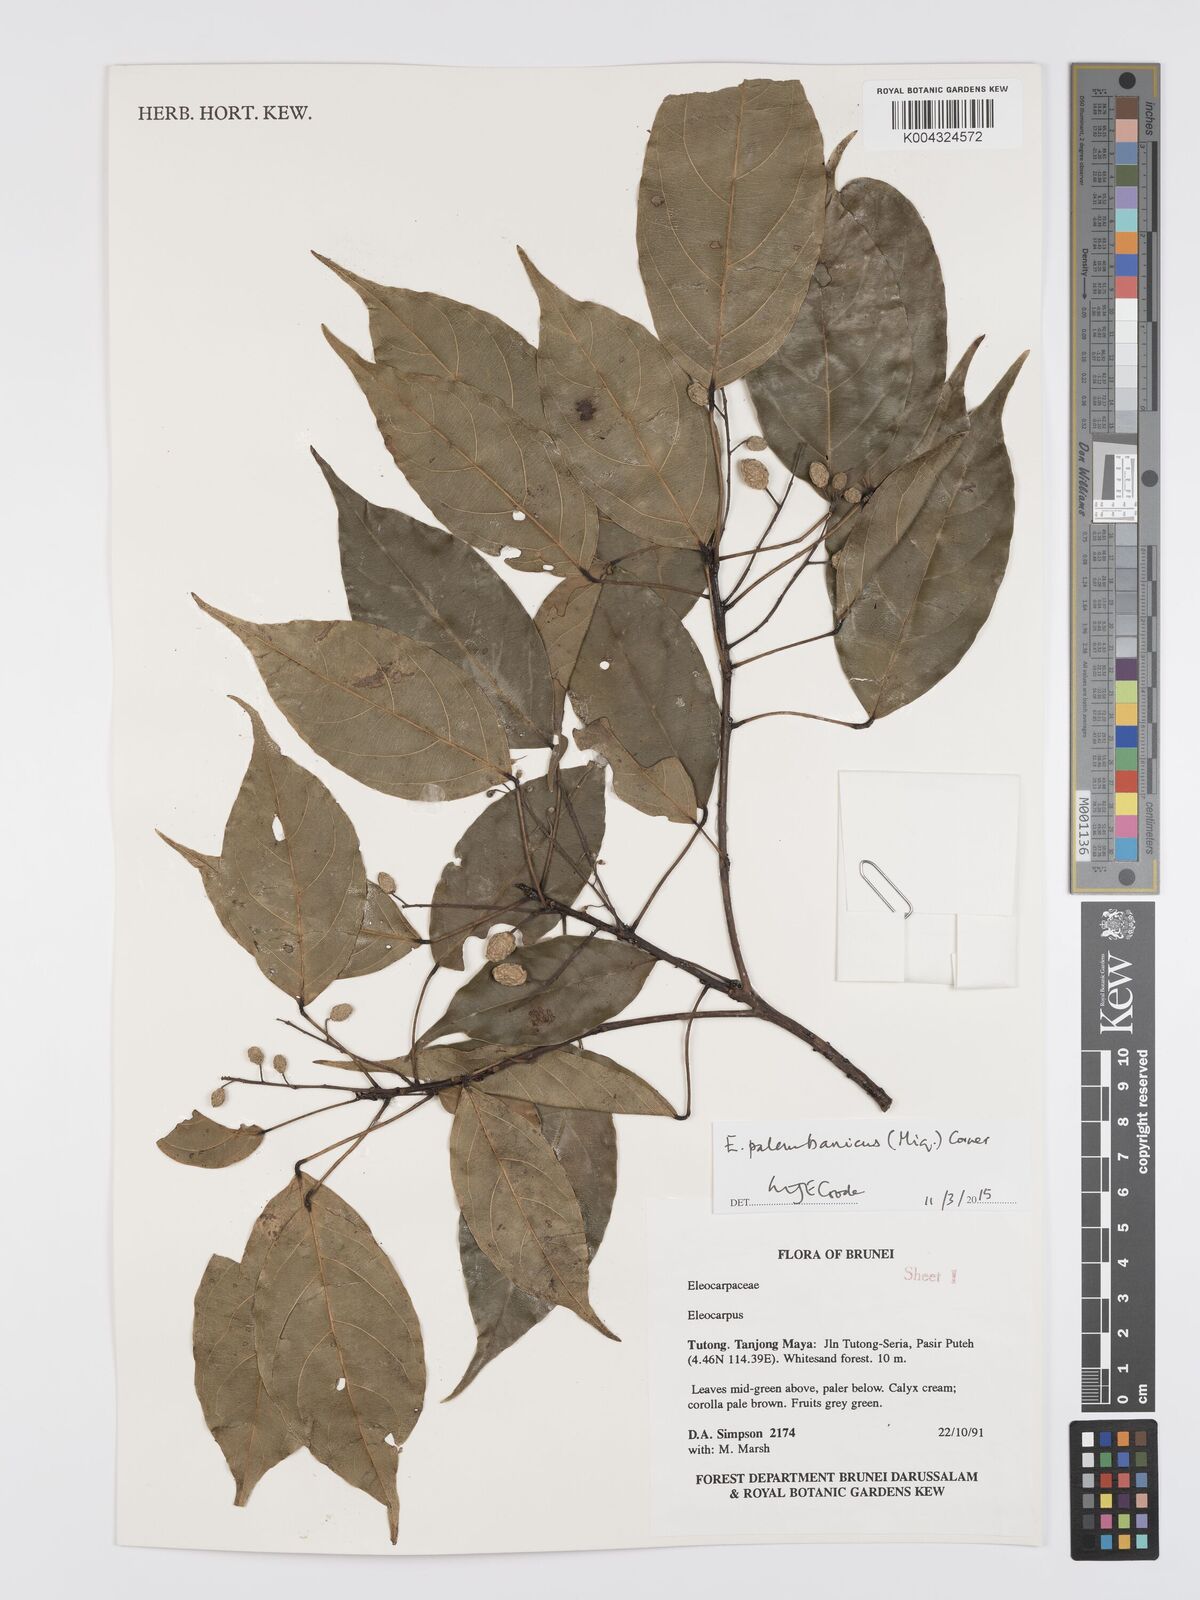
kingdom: Plantae
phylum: Tracheophyta
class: Magnoliopsida
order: Oxalidales
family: Elaeocarpaceae
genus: Elaeocarpus
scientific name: Elaeocarpus palembanicus
